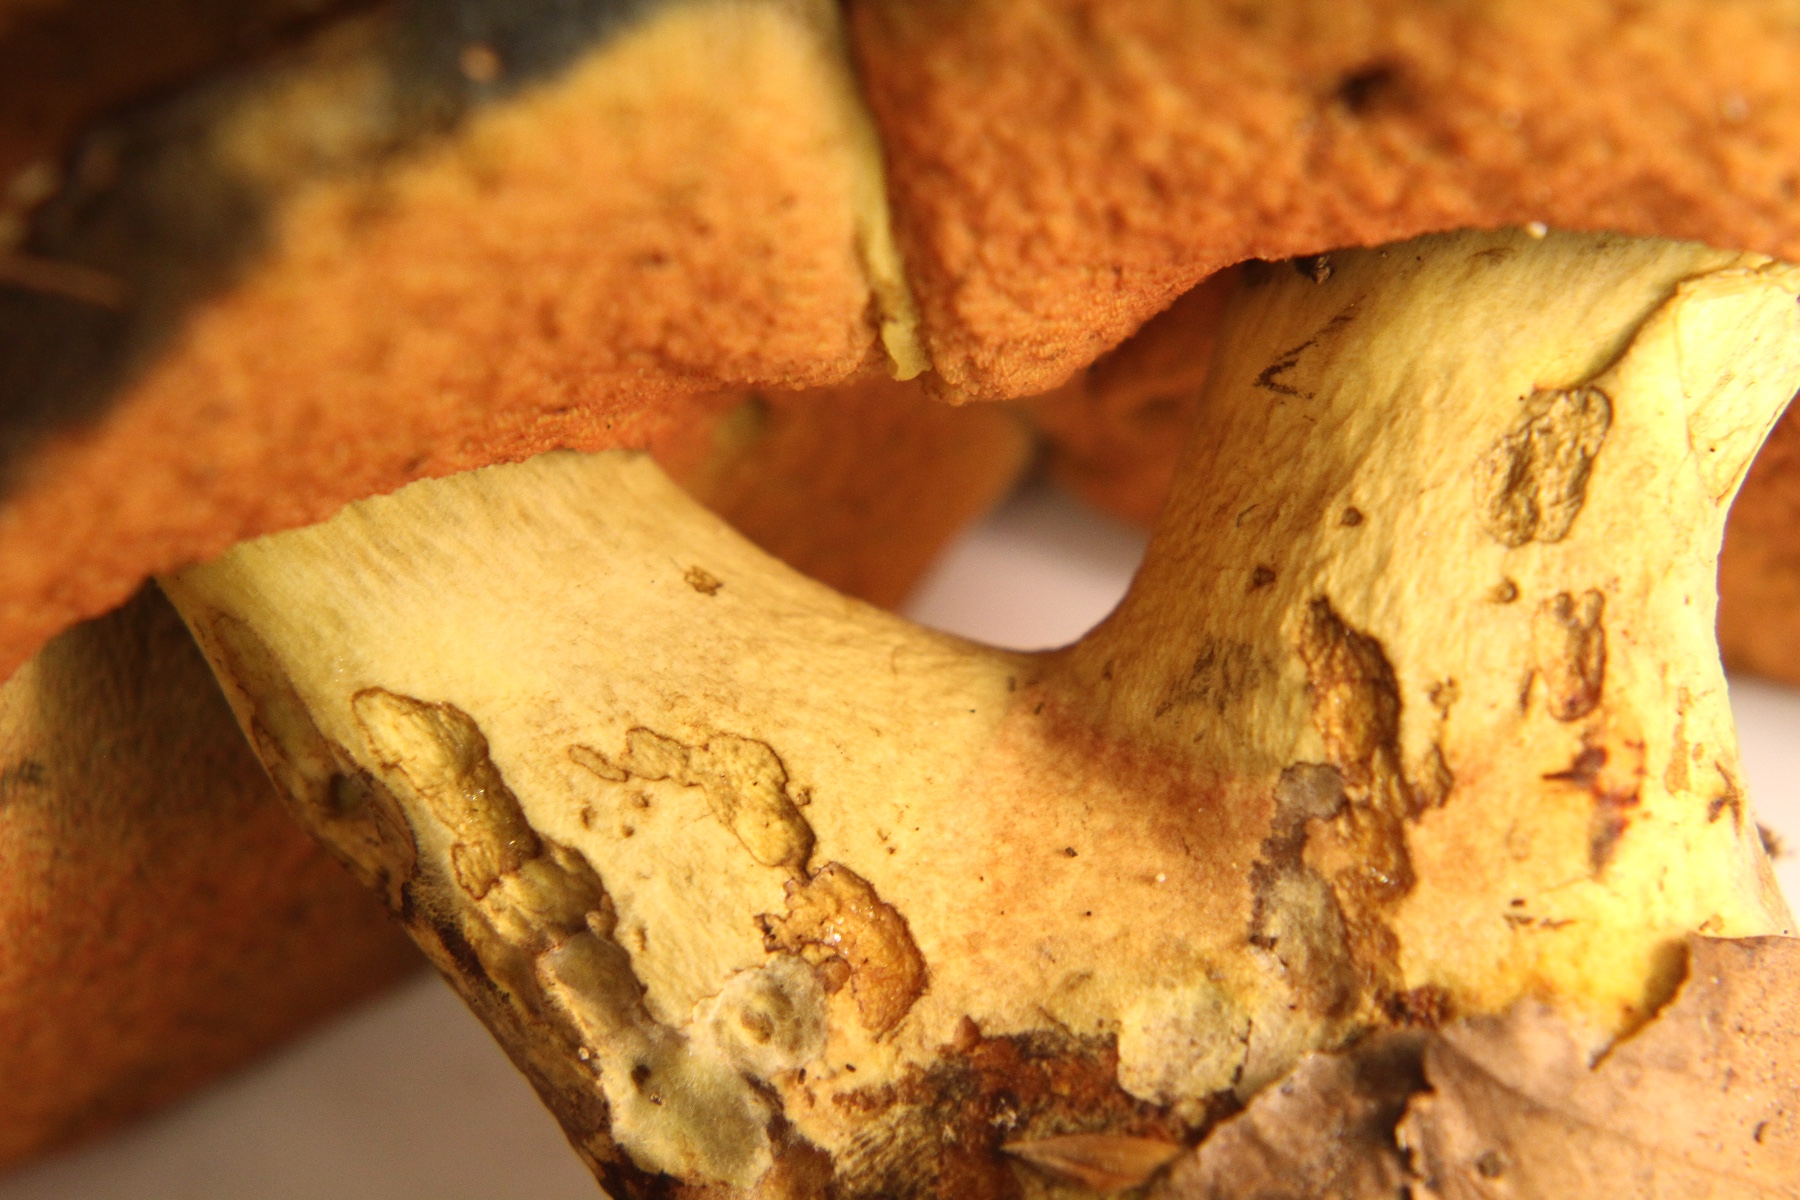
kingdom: Fungi
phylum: Basidiomycota
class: Agaricomycetes
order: Boletales
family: Boletaceae
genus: Neoboletus
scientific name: Neoboletus erythropus
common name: punktstokket indigorørhat
